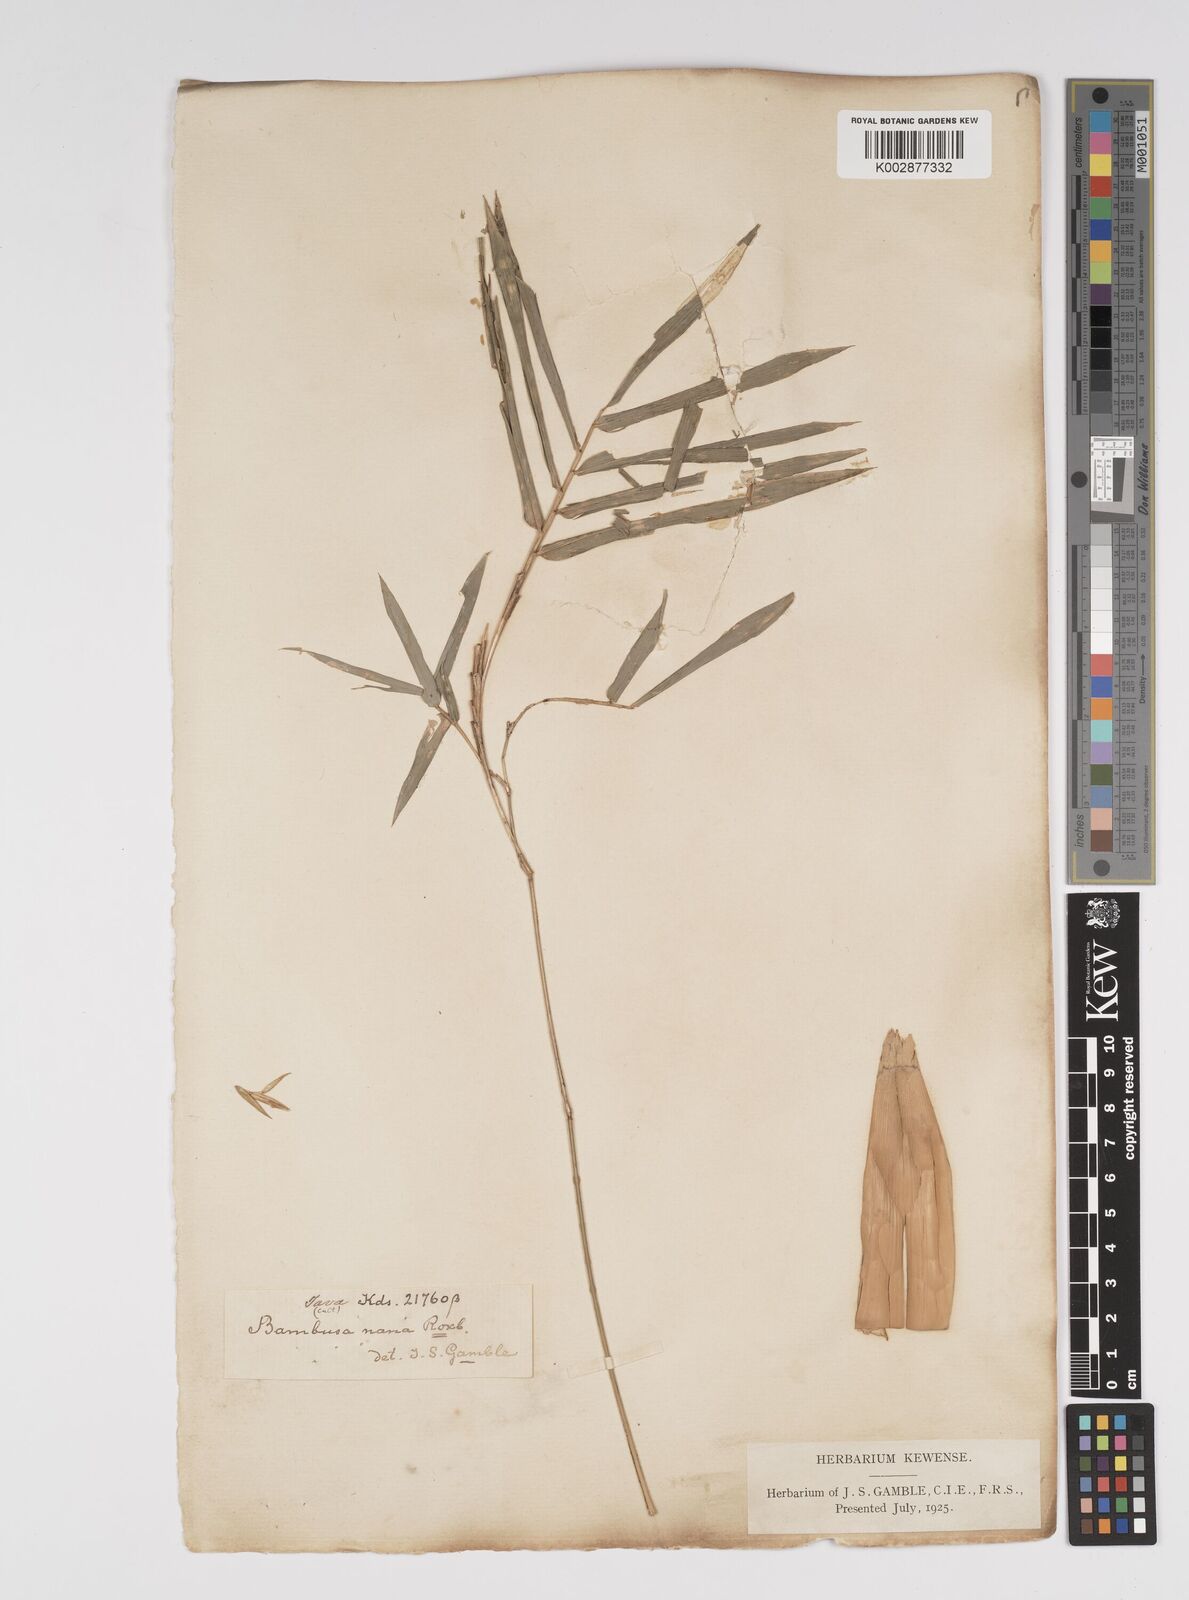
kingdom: Plantae
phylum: Tracheophyta
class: Liliopsida
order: Poales
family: Poaceae
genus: Bambusa
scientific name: Bambusa multiplex
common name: Hedge bamboo
